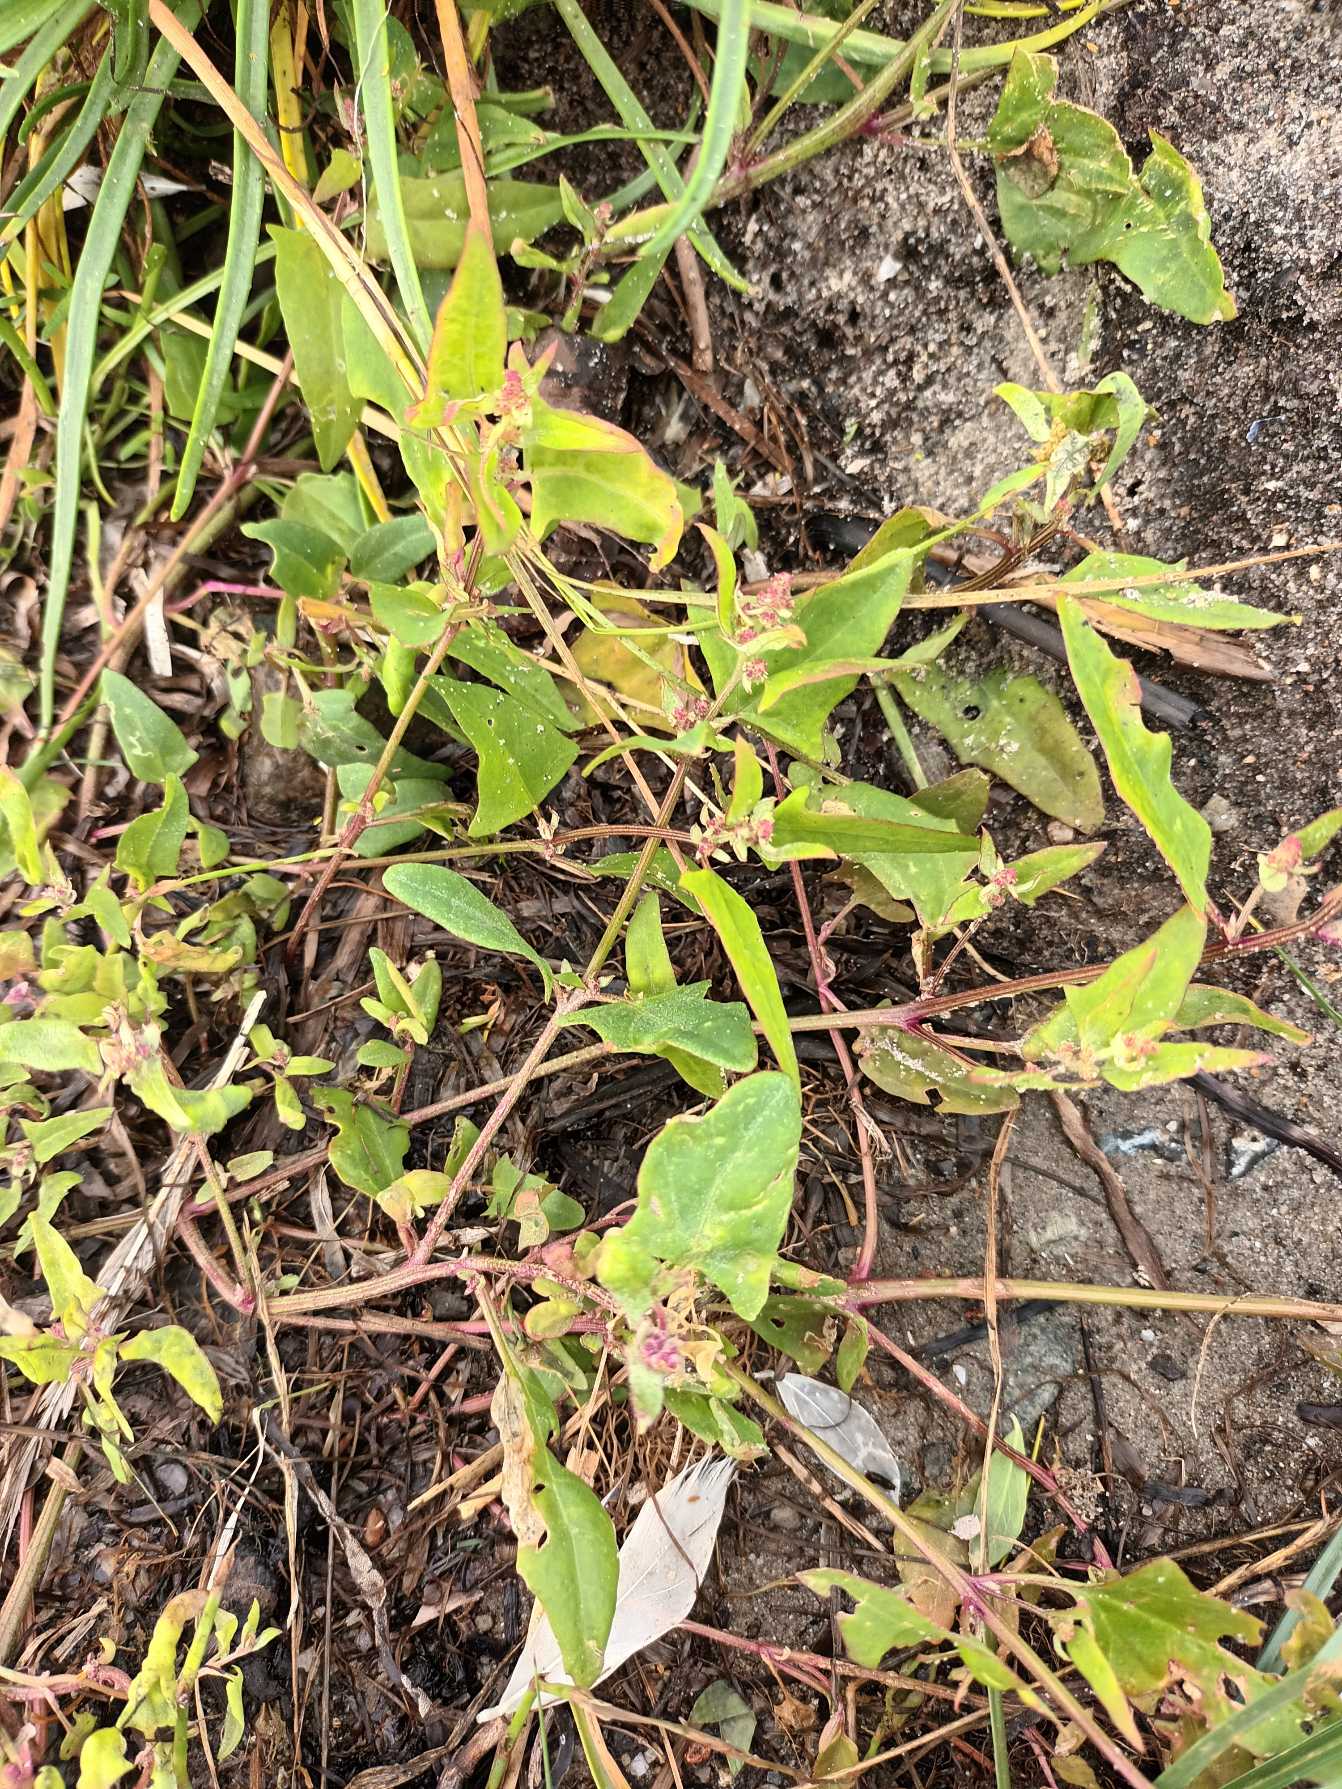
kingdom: Plantae
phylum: Tracheophyta
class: Magnoliopsida
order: Caryophyllales
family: Amaranthaceae
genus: Atriplex
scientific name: Atriplex prostrata
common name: Spyd-mælde
